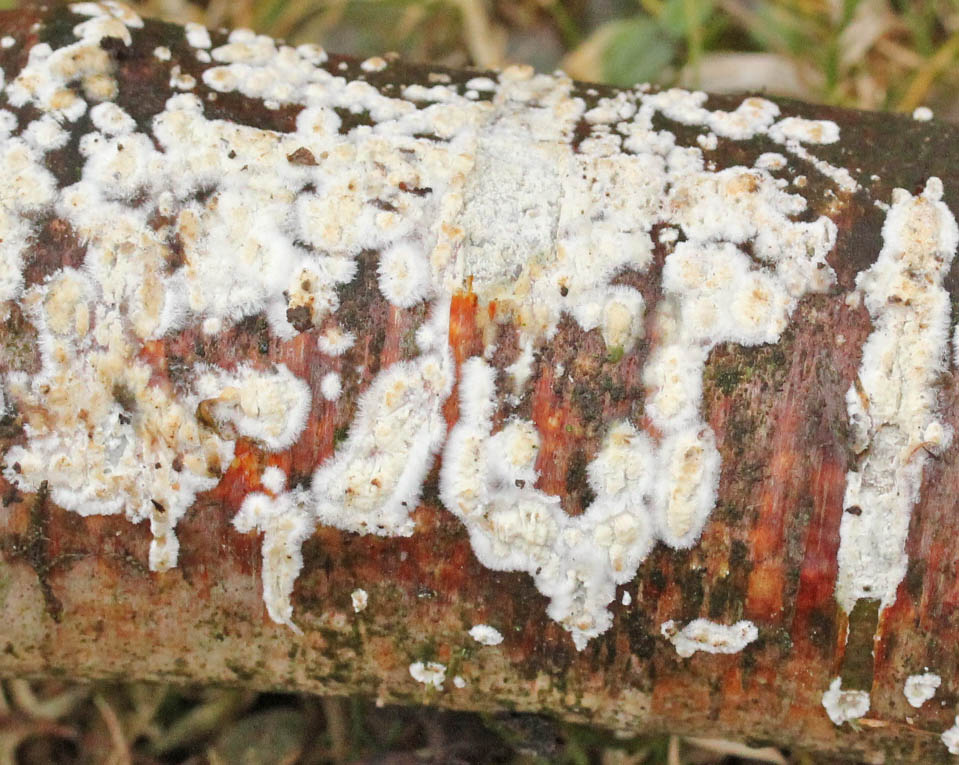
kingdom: Fungi
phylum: Basidiomycota
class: Agaricomycetes
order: Hymenochaetales
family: Schizoporaceae
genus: Xylodon
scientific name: Xylodon radula
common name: grovtandet kalkskind
